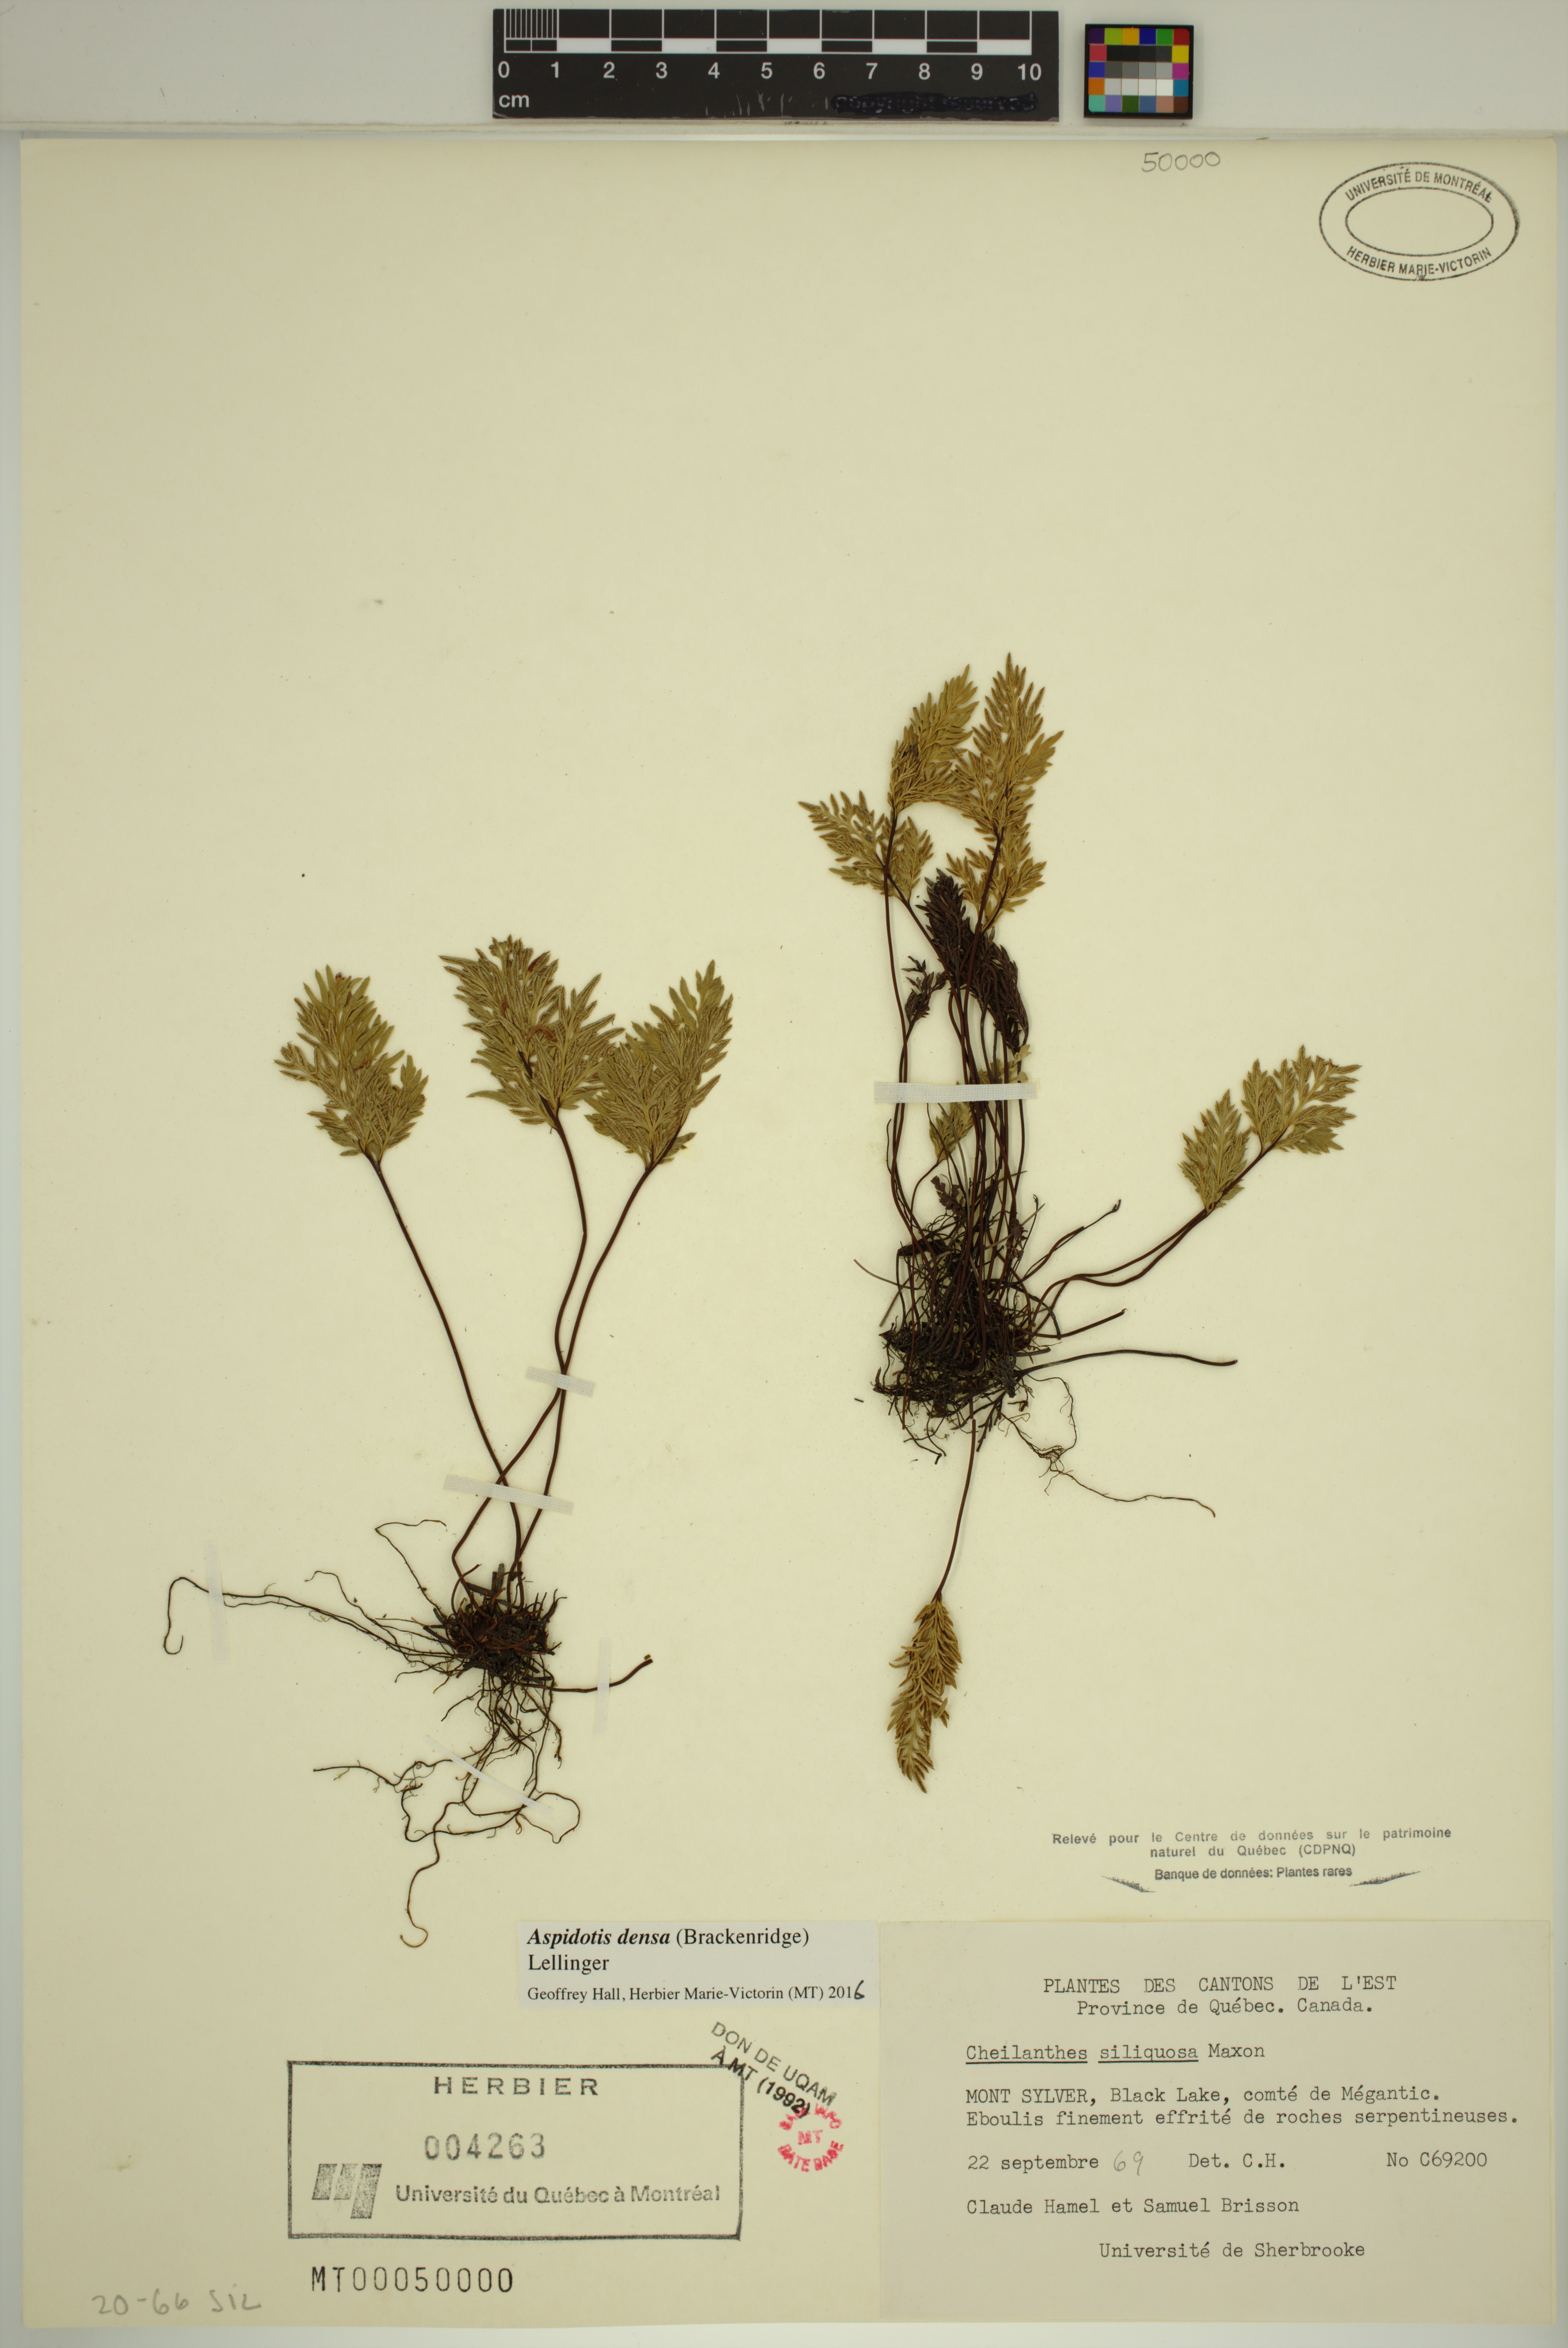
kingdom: Plantae
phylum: Tracheophyta
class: Polypodiopsida
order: Polypodiales
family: Pteridaceae
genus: Aspidotis
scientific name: Aspidotis densa
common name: Indian's dream
